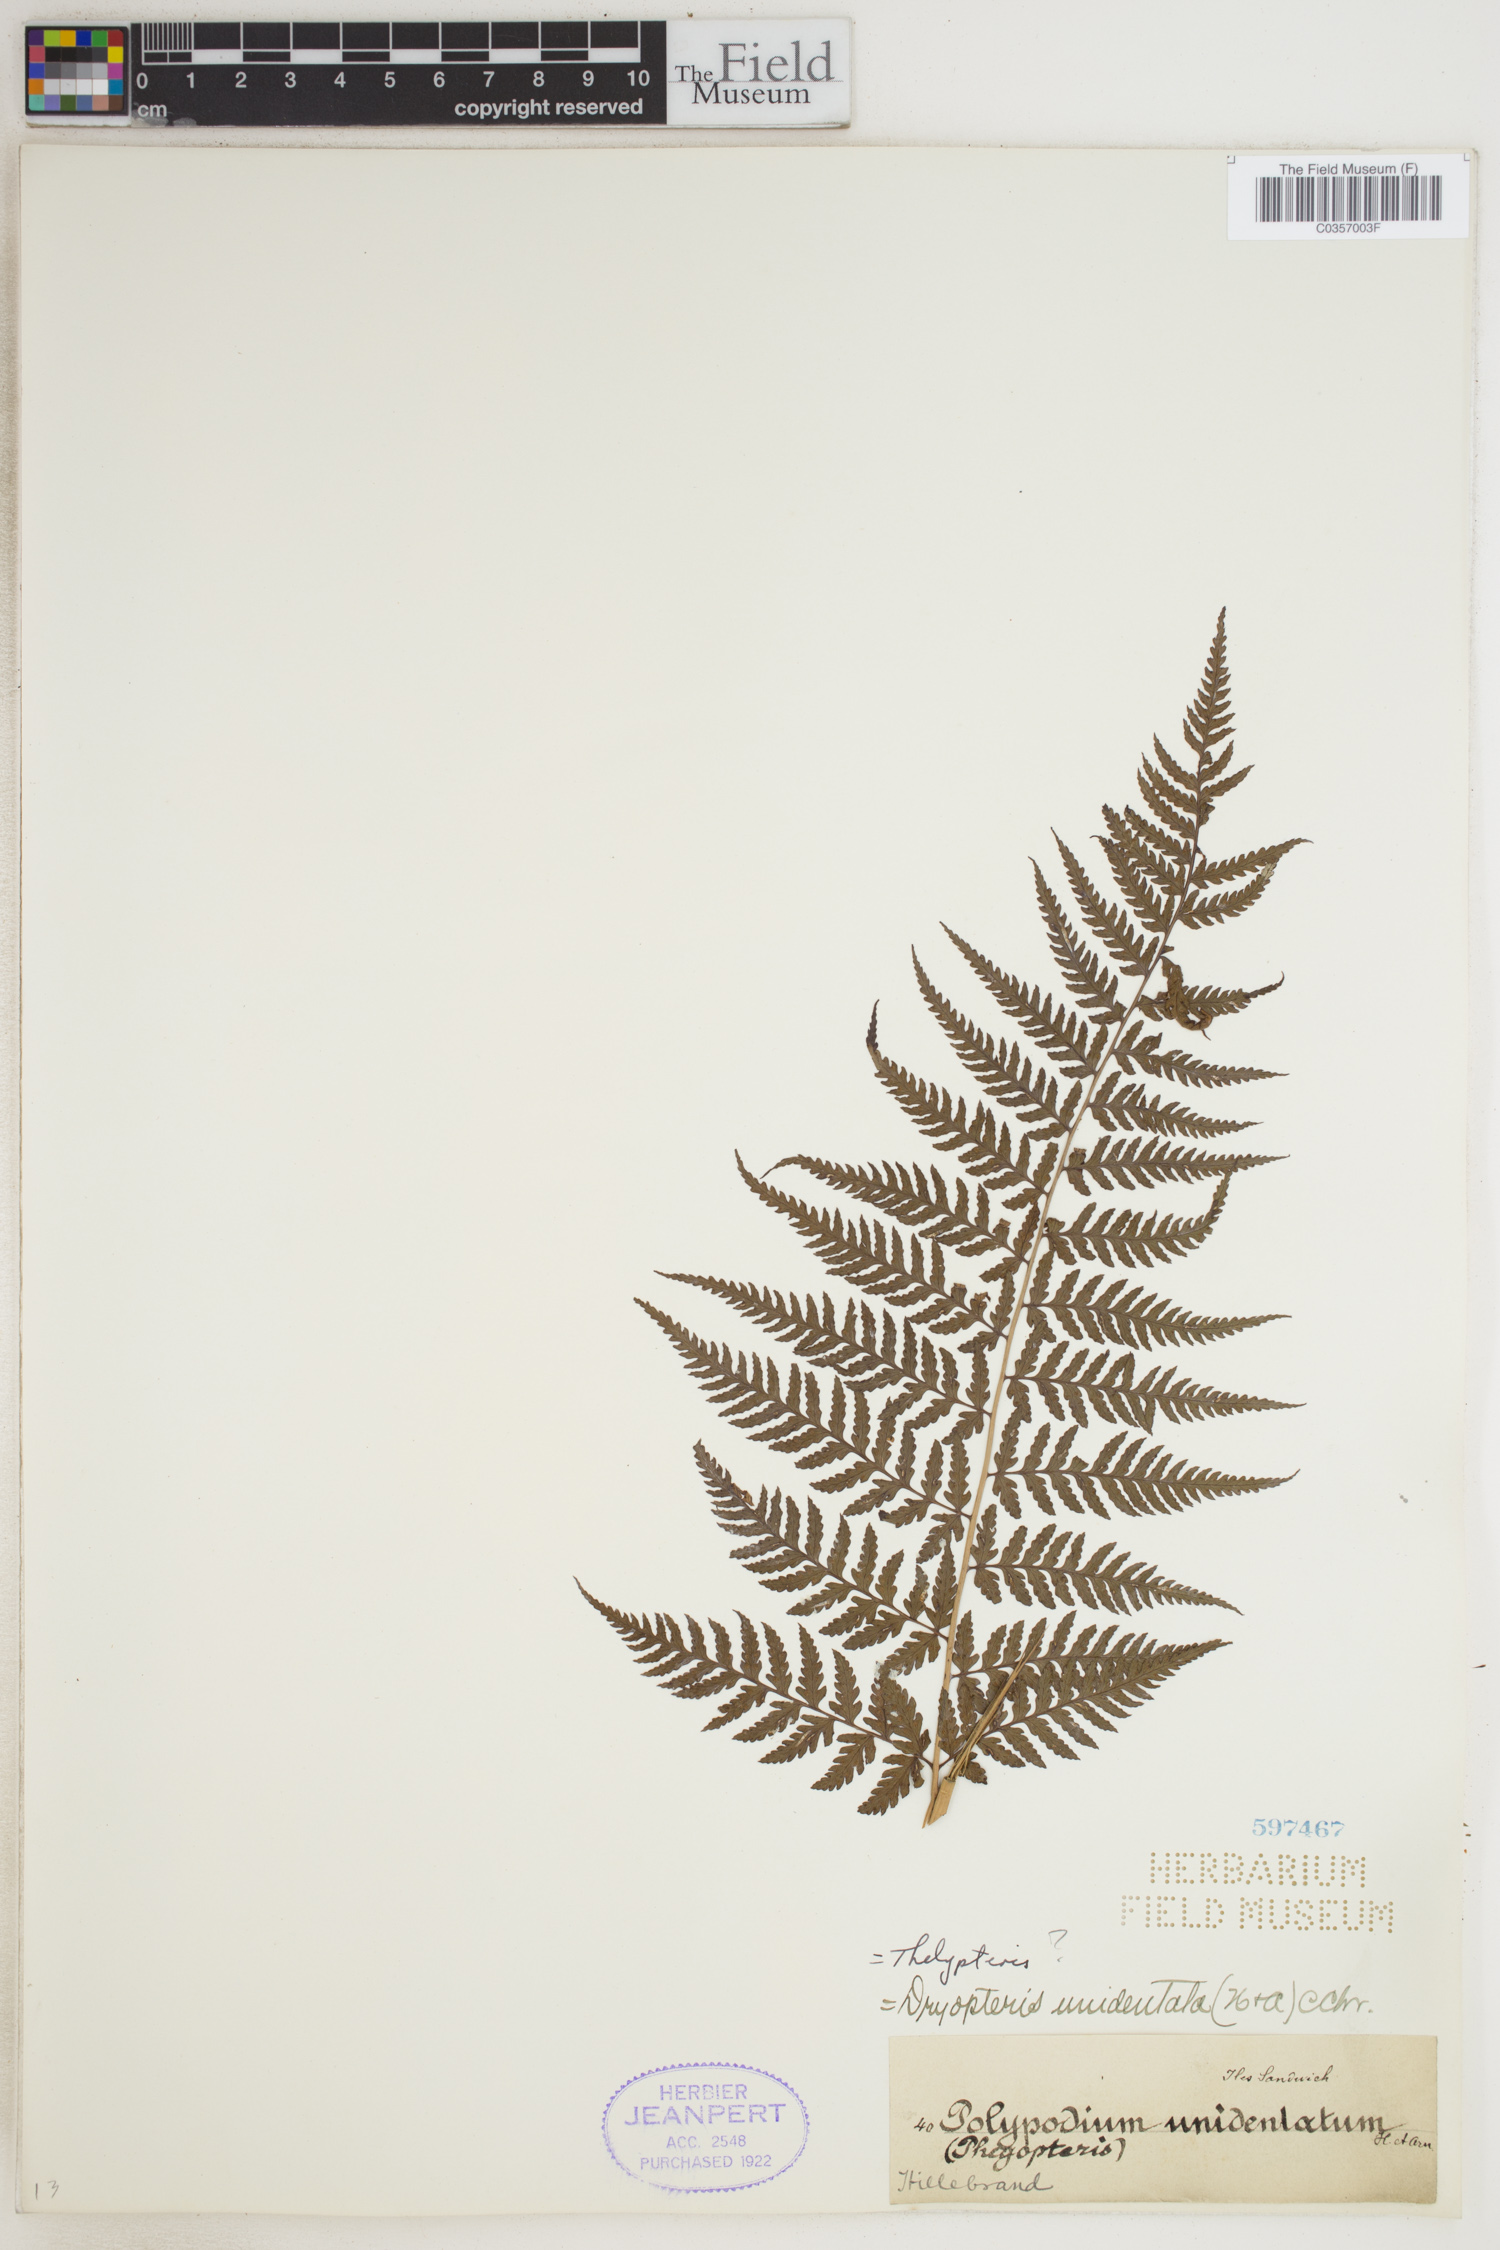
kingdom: Plantae
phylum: Tracheophyta
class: Polypodiopsida
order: Polypodiales
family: Dryopteridaceae
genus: Dryopteris
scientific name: Dryopteris unidentata
